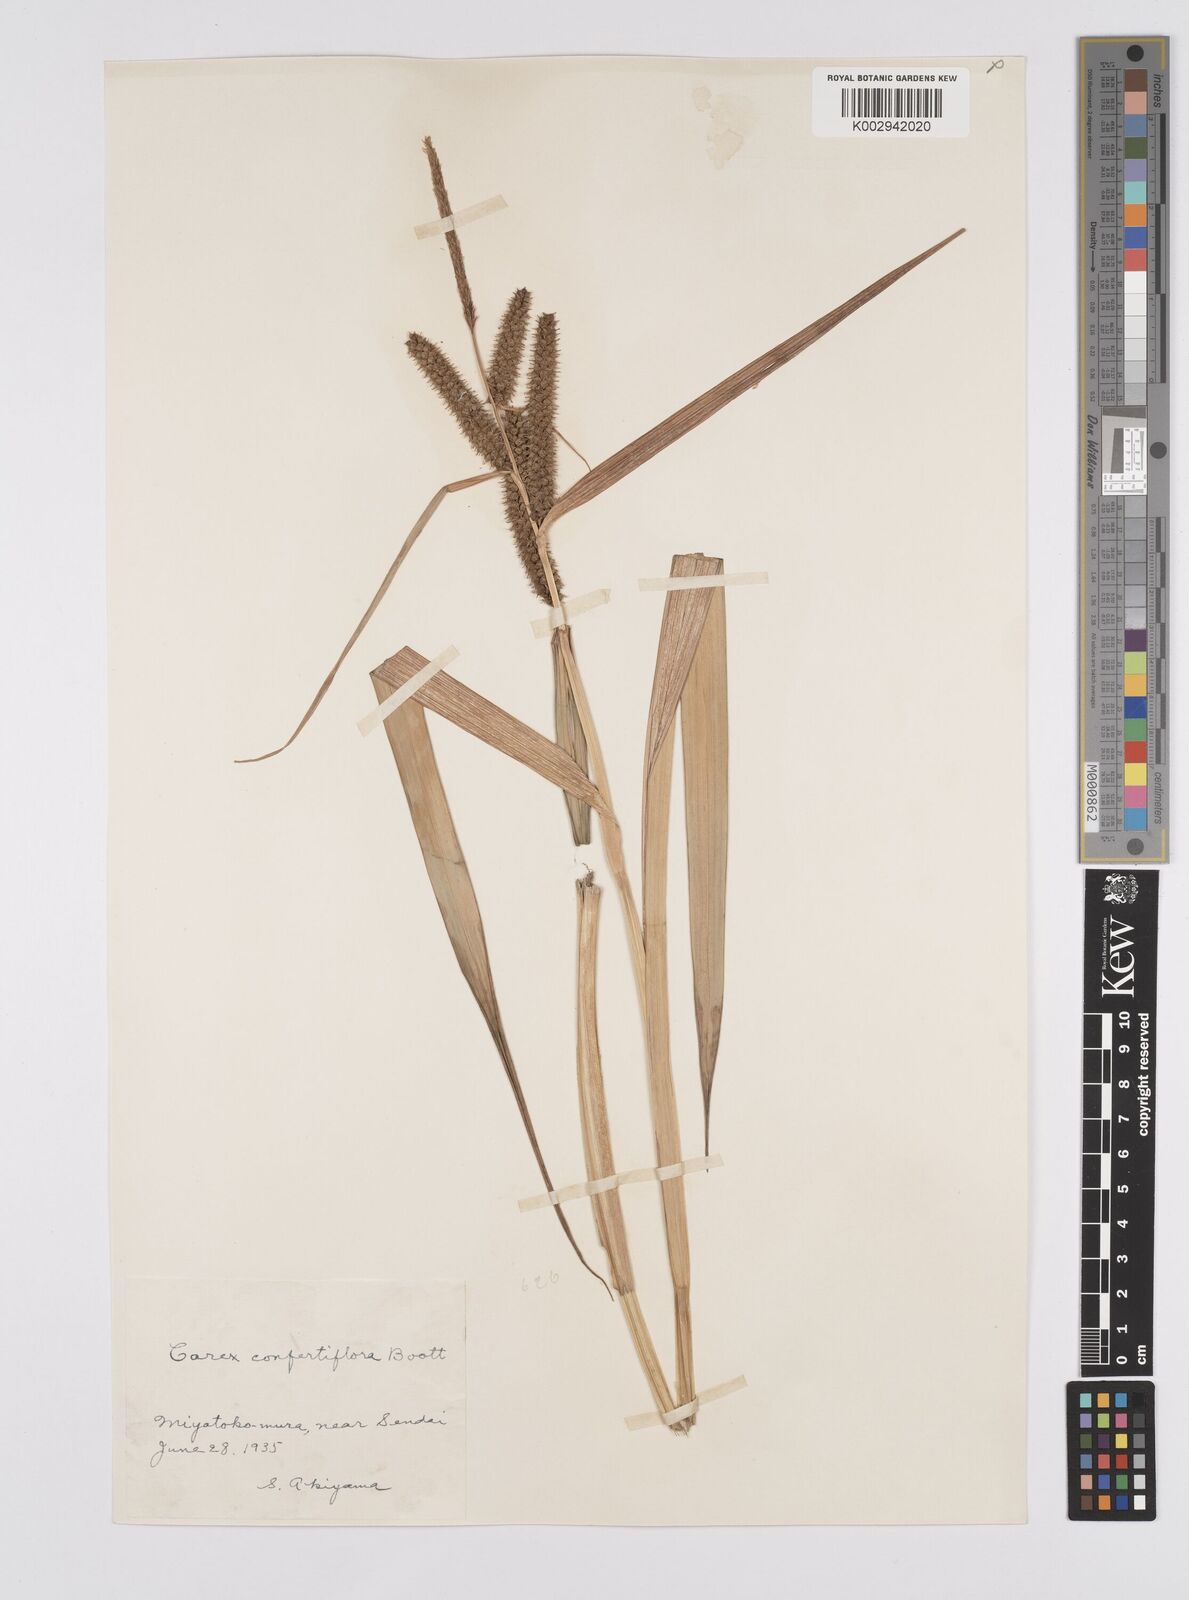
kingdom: Plantae
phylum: Tracheophyta
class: Liliopsida
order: Poales
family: Cyperaceae
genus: Carex
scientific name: Carex olivacea
